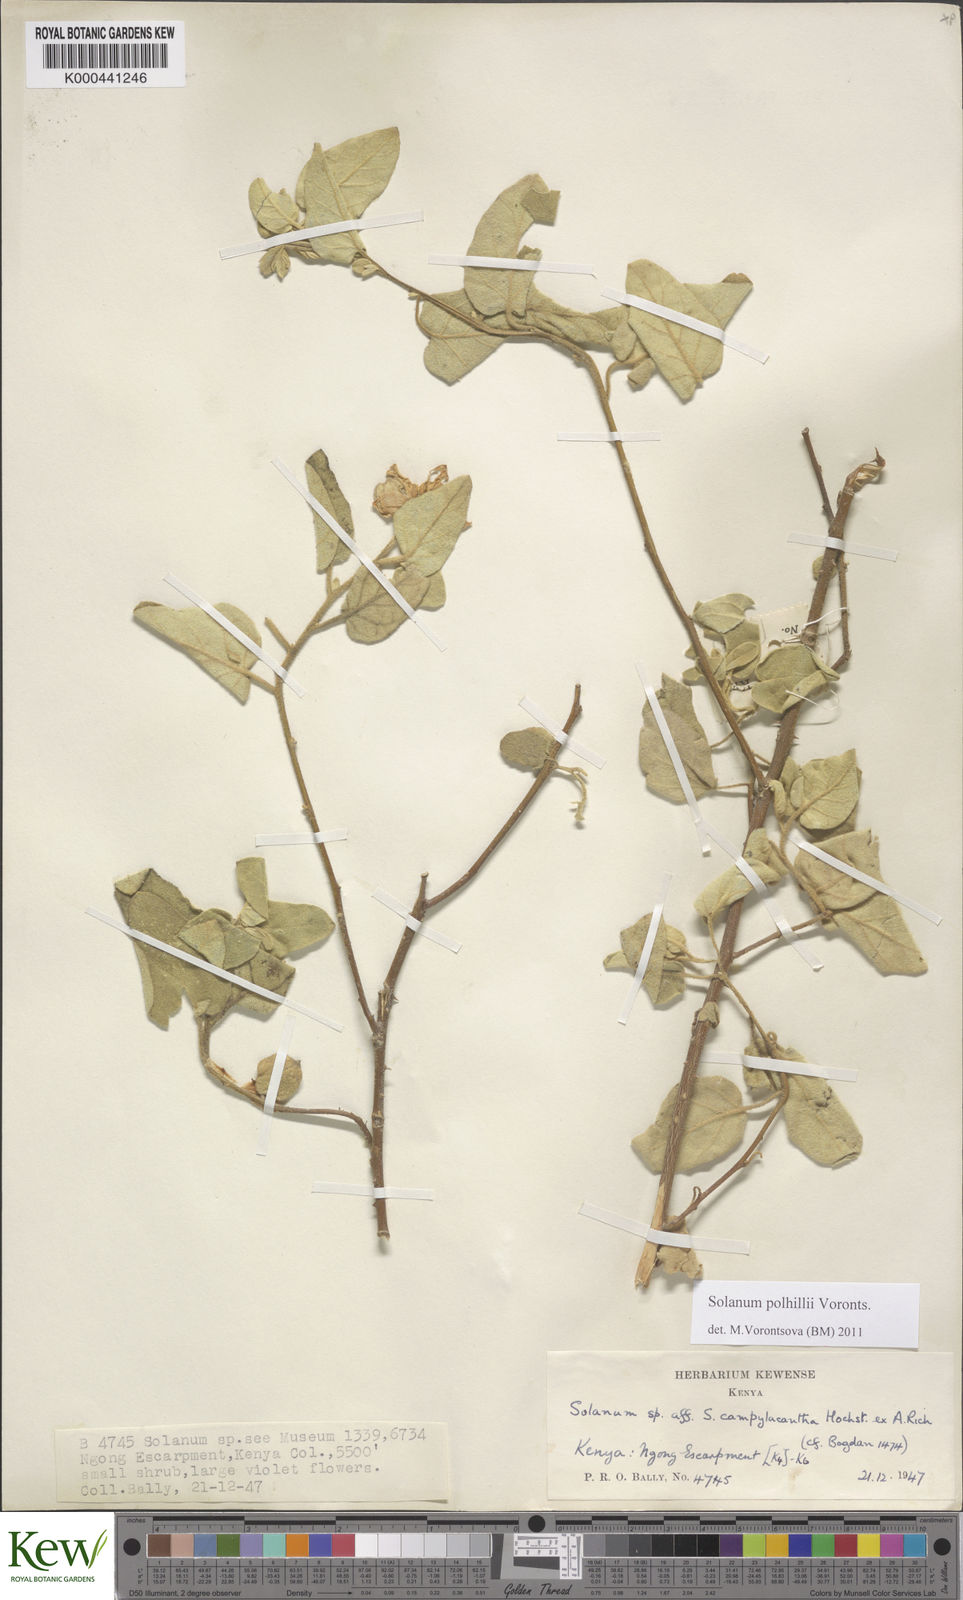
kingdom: Plantae
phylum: Tracheophyta
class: Magnoliopsida
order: Solanales
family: Solanaceae
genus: Solanum
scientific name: Solanum polhillii
